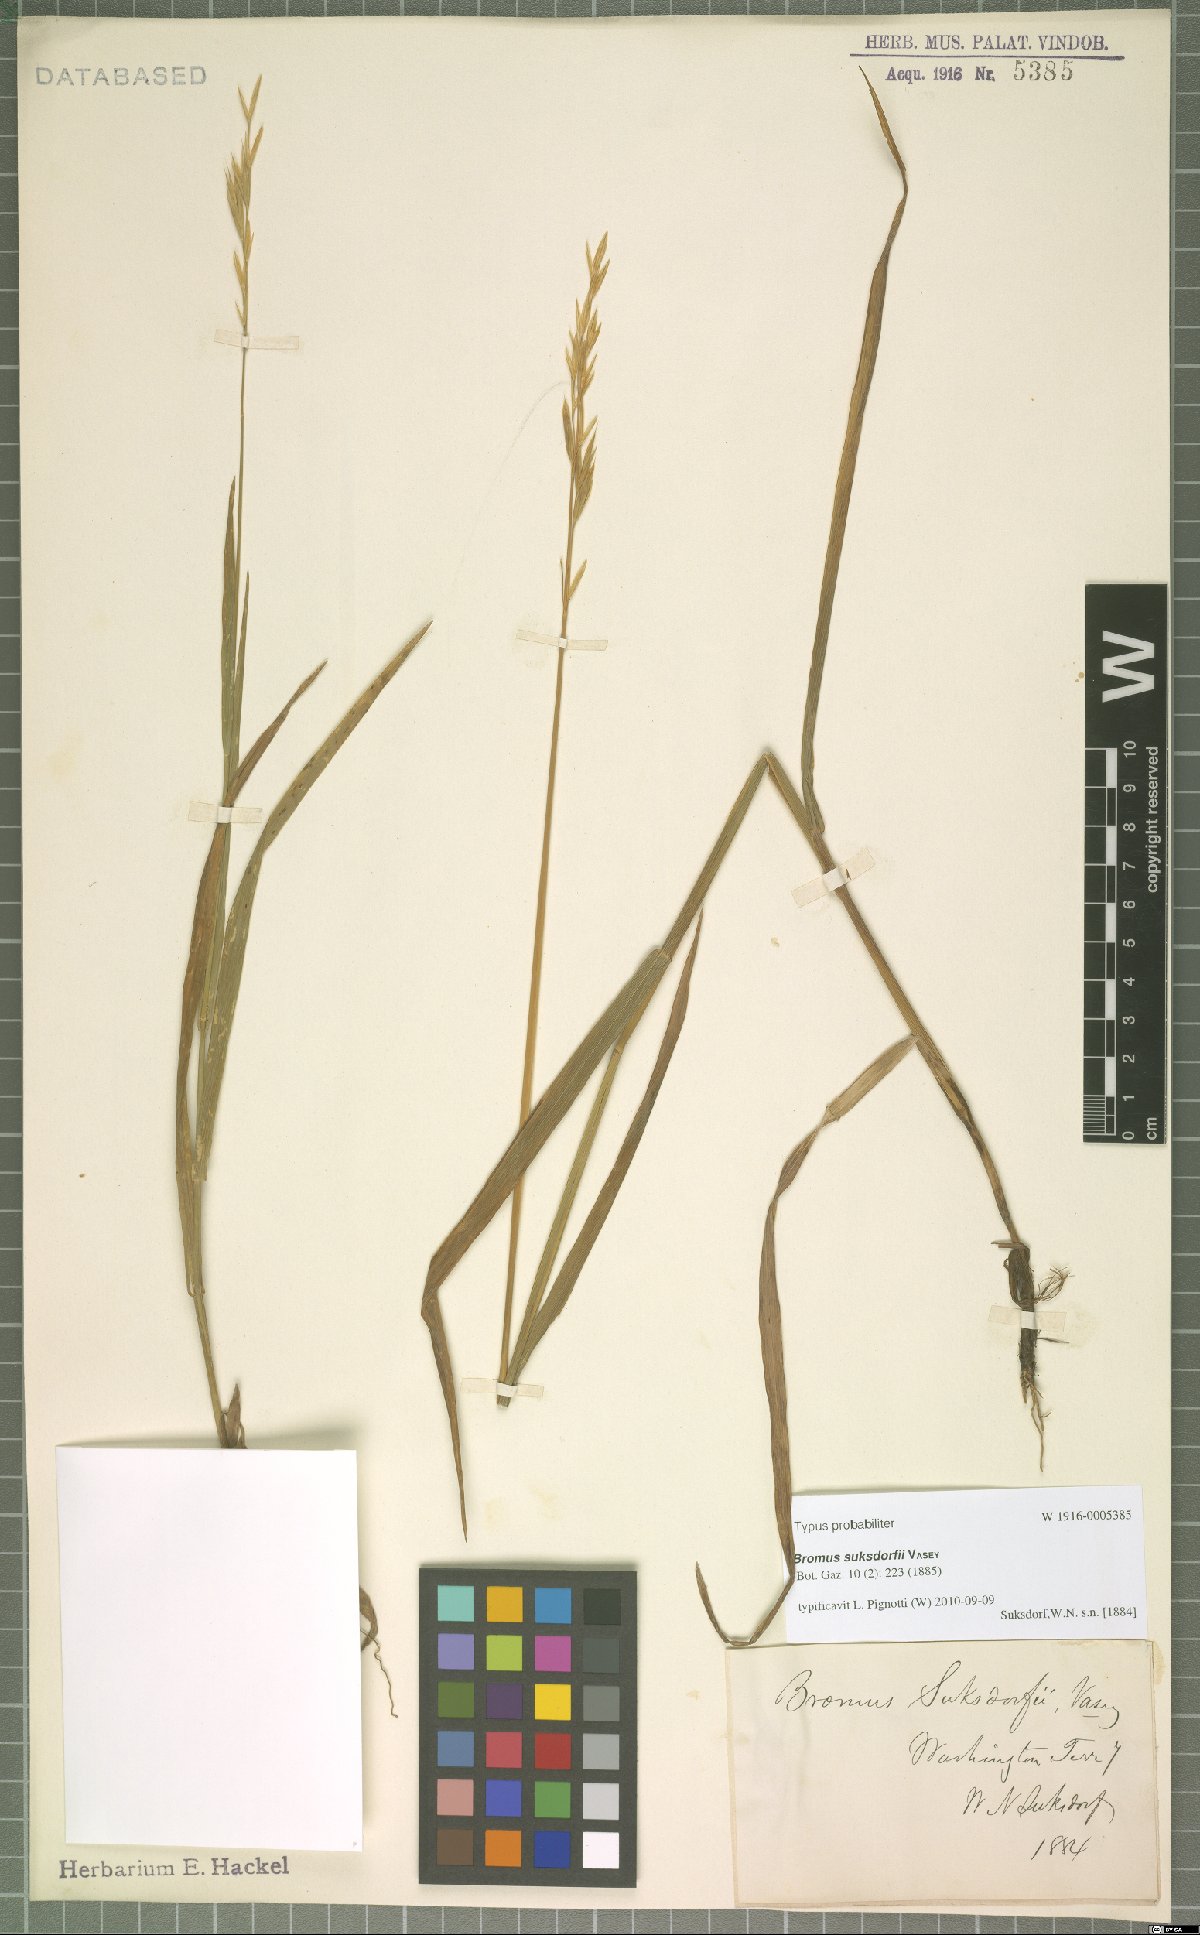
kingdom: Plantae
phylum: Tracheophyta
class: Liliopsida
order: Poales
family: Poaceae
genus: Bromus
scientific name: Bromus suksdorfii
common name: Suksdorf's brome
